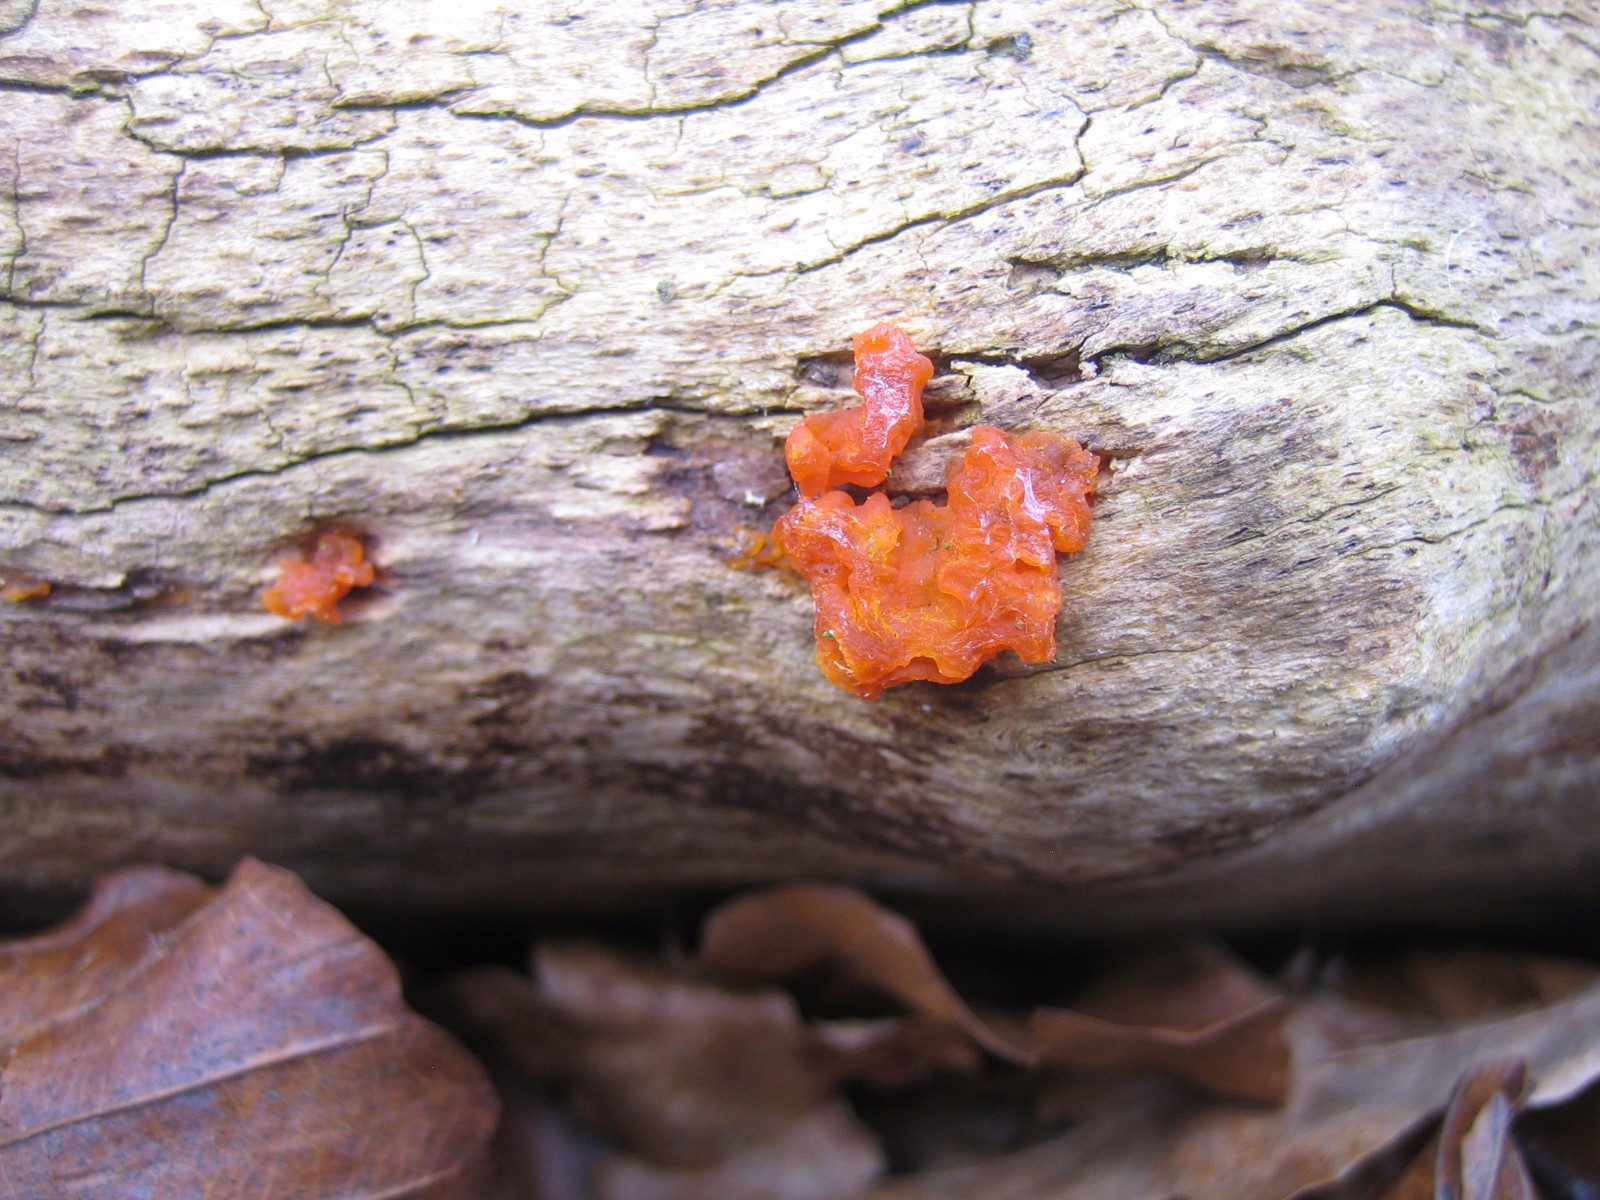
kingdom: Fungi
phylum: Basidiomycota
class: Dacrymycetes
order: Dacrymycetales
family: Dacrymycetaceae
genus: Dacrymyces
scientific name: Dacrymyces stillatus
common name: almindelig tåresvamp
